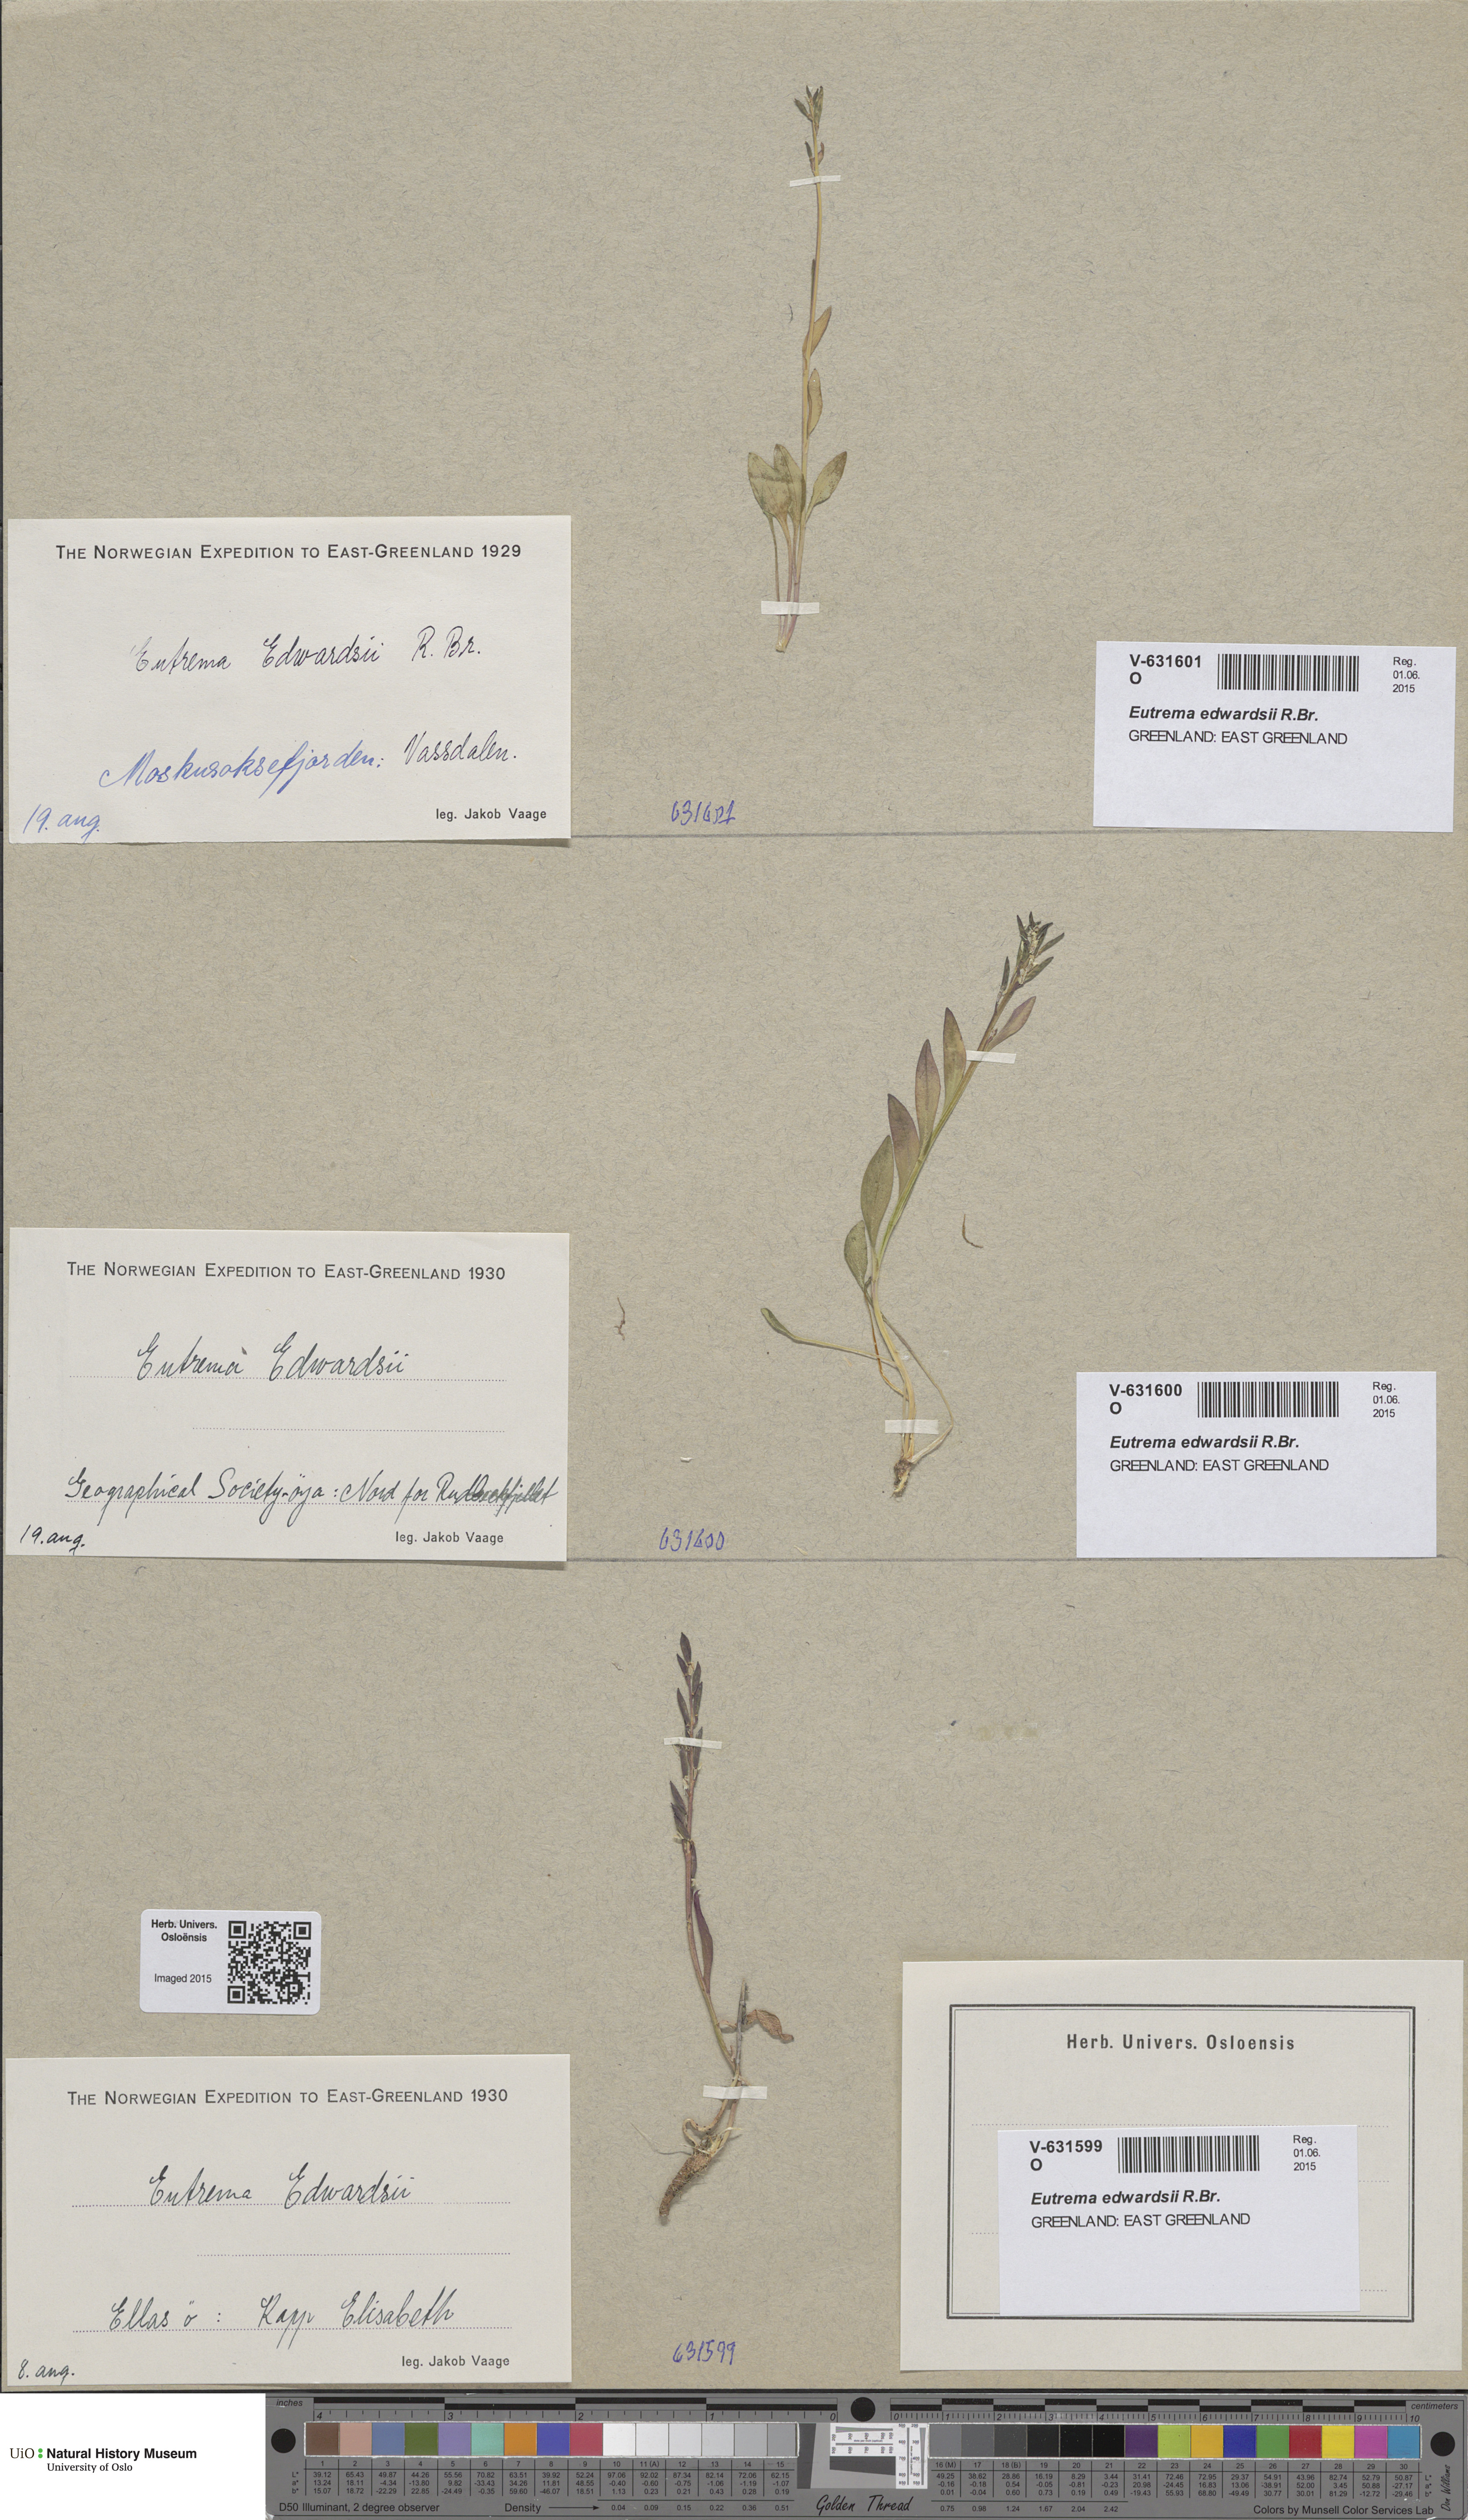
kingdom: Plantae
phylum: Tracheophyta
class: Magnoliopsida
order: Brassicales
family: Brassicaceae
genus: Eutrema
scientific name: Eutrema edwardsii
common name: Penland alpine fen mustard
